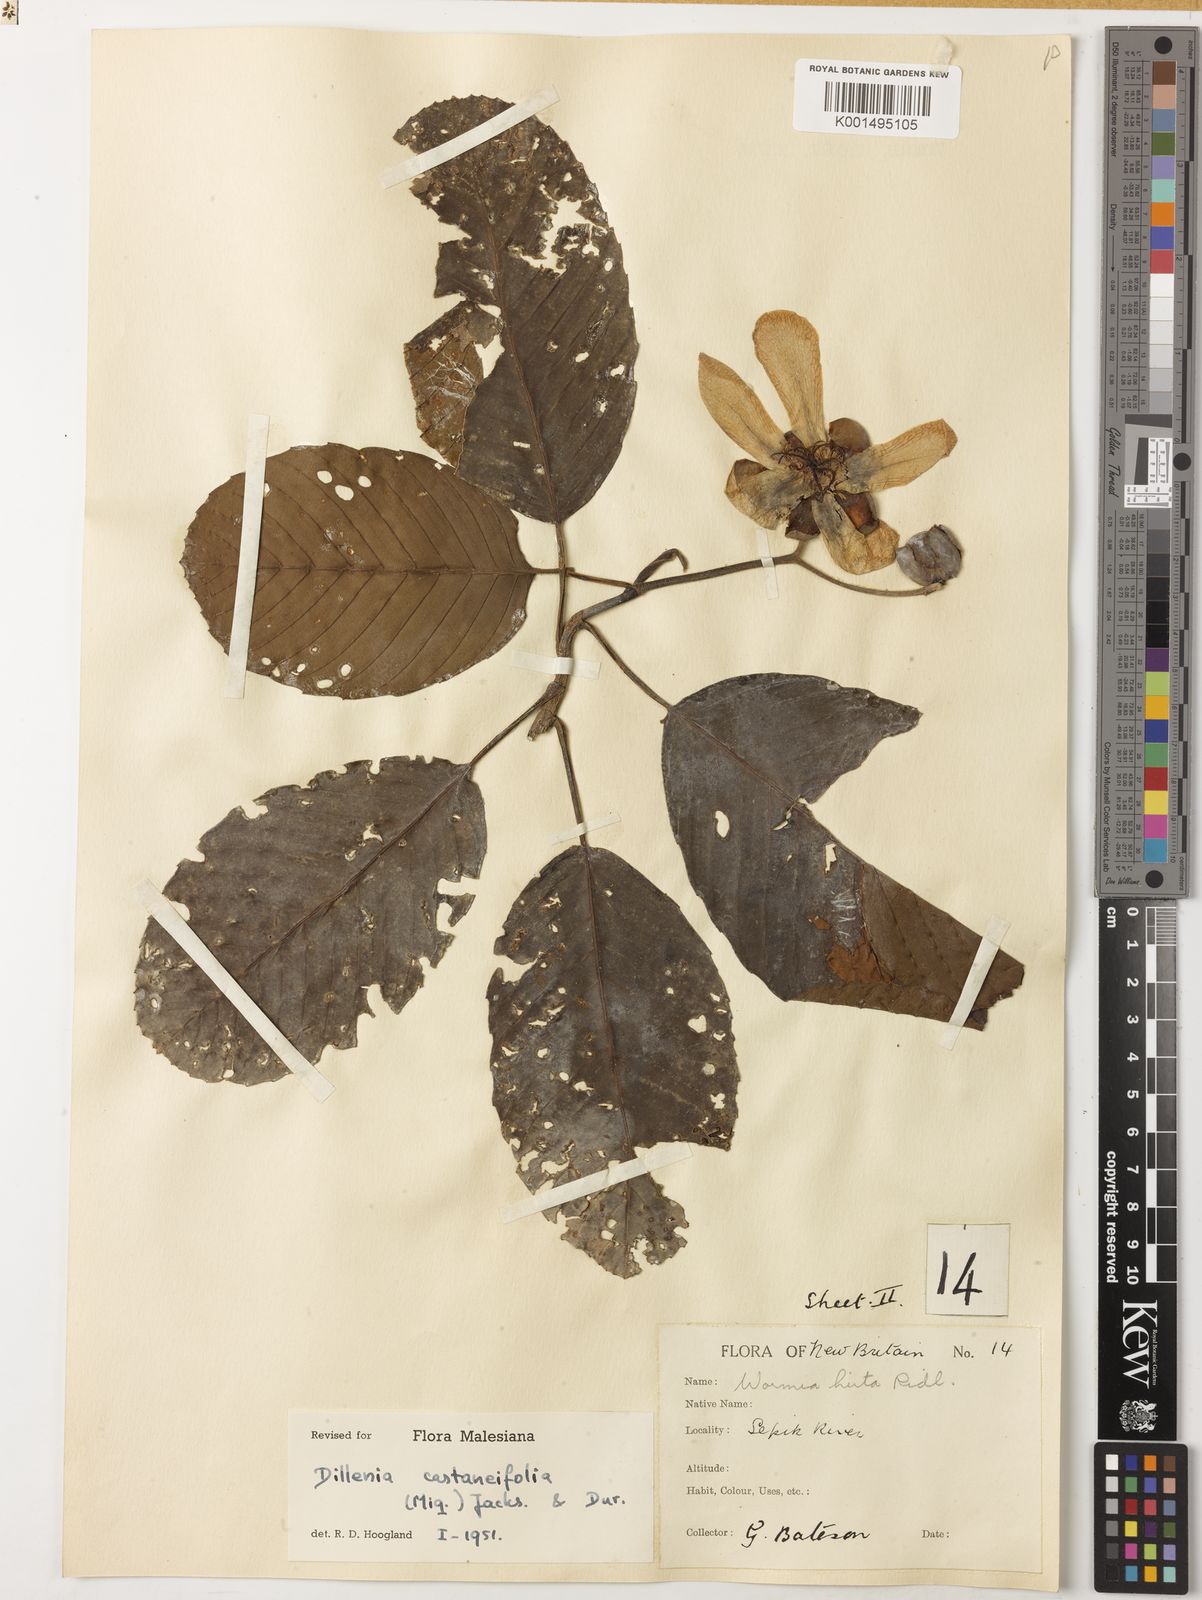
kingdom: Plantae
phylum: Tracheophyta
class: Magnoliopsida
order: Dilleniales
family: Dilleniaceae
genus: Dillenia
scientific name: Dillenia castaneifolia
